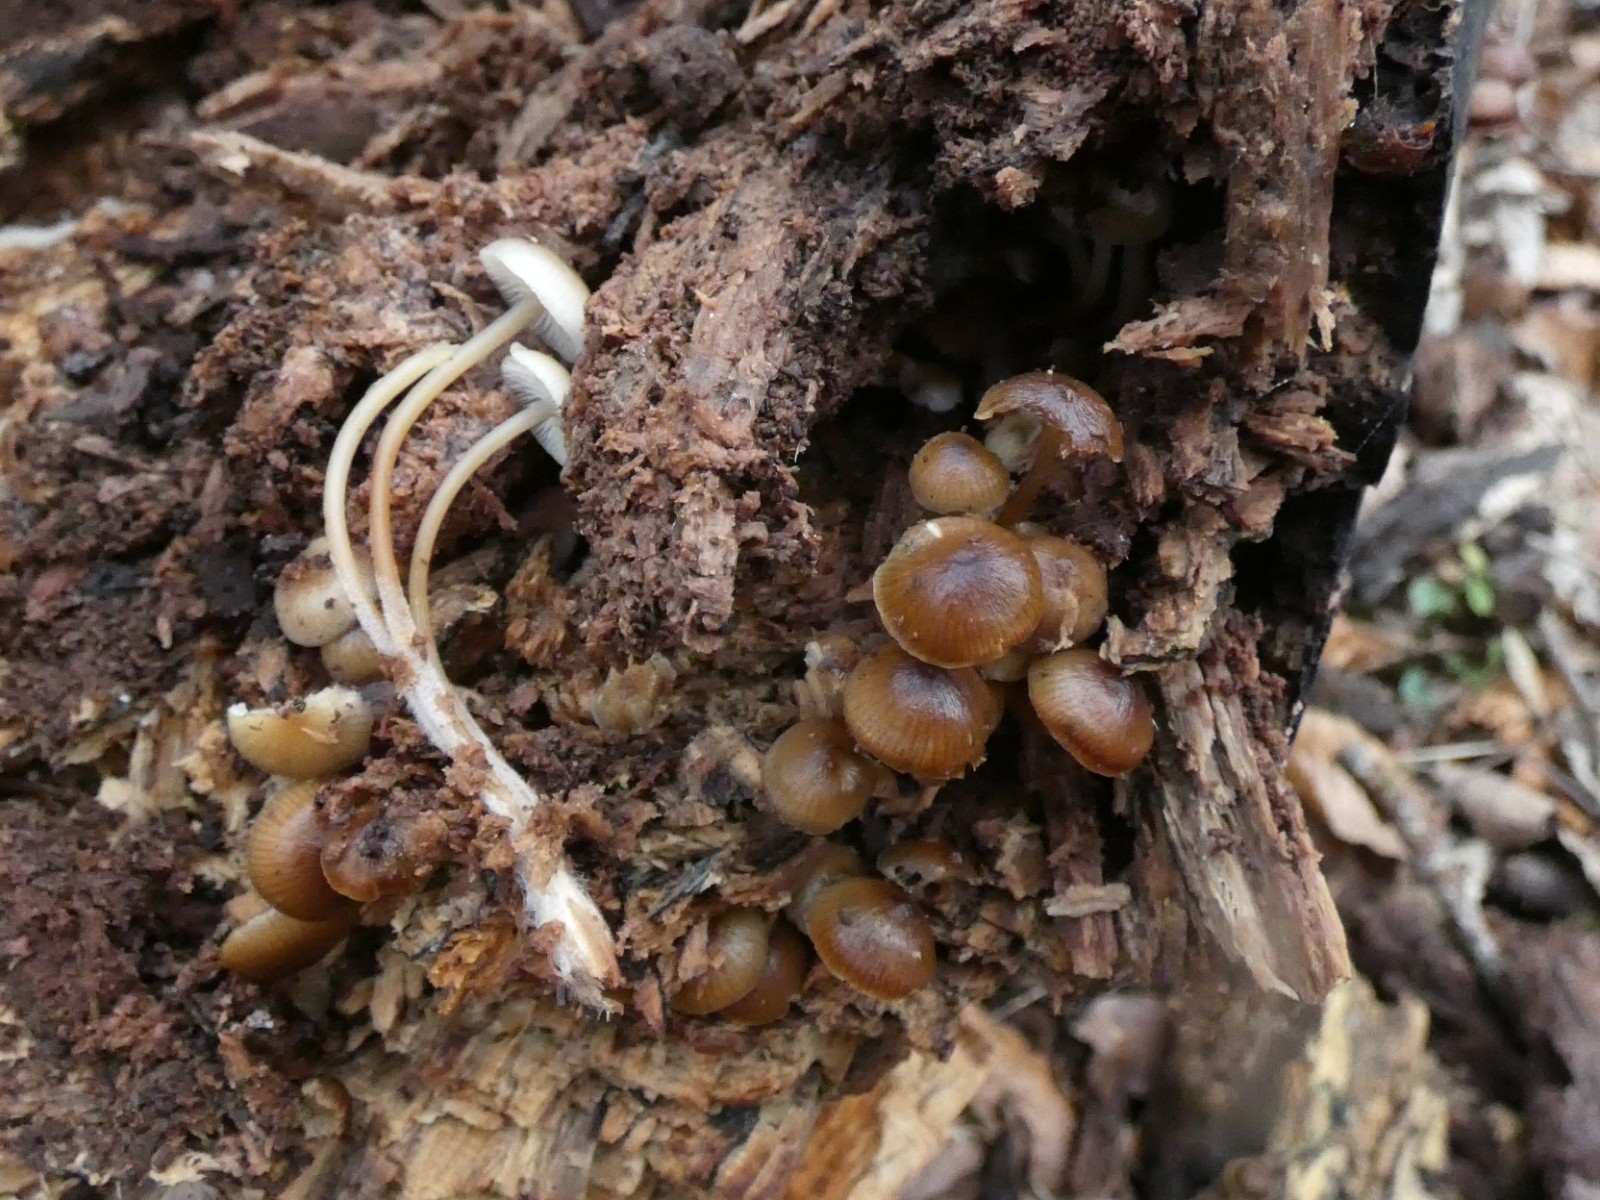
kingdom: Fungi
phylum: Basidiomycota
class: Agaricomycetes
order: Agaricales
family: Mycenaceae
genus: Mycena
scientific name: Mycena tintinnabulum
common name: vinter-huesvamp
